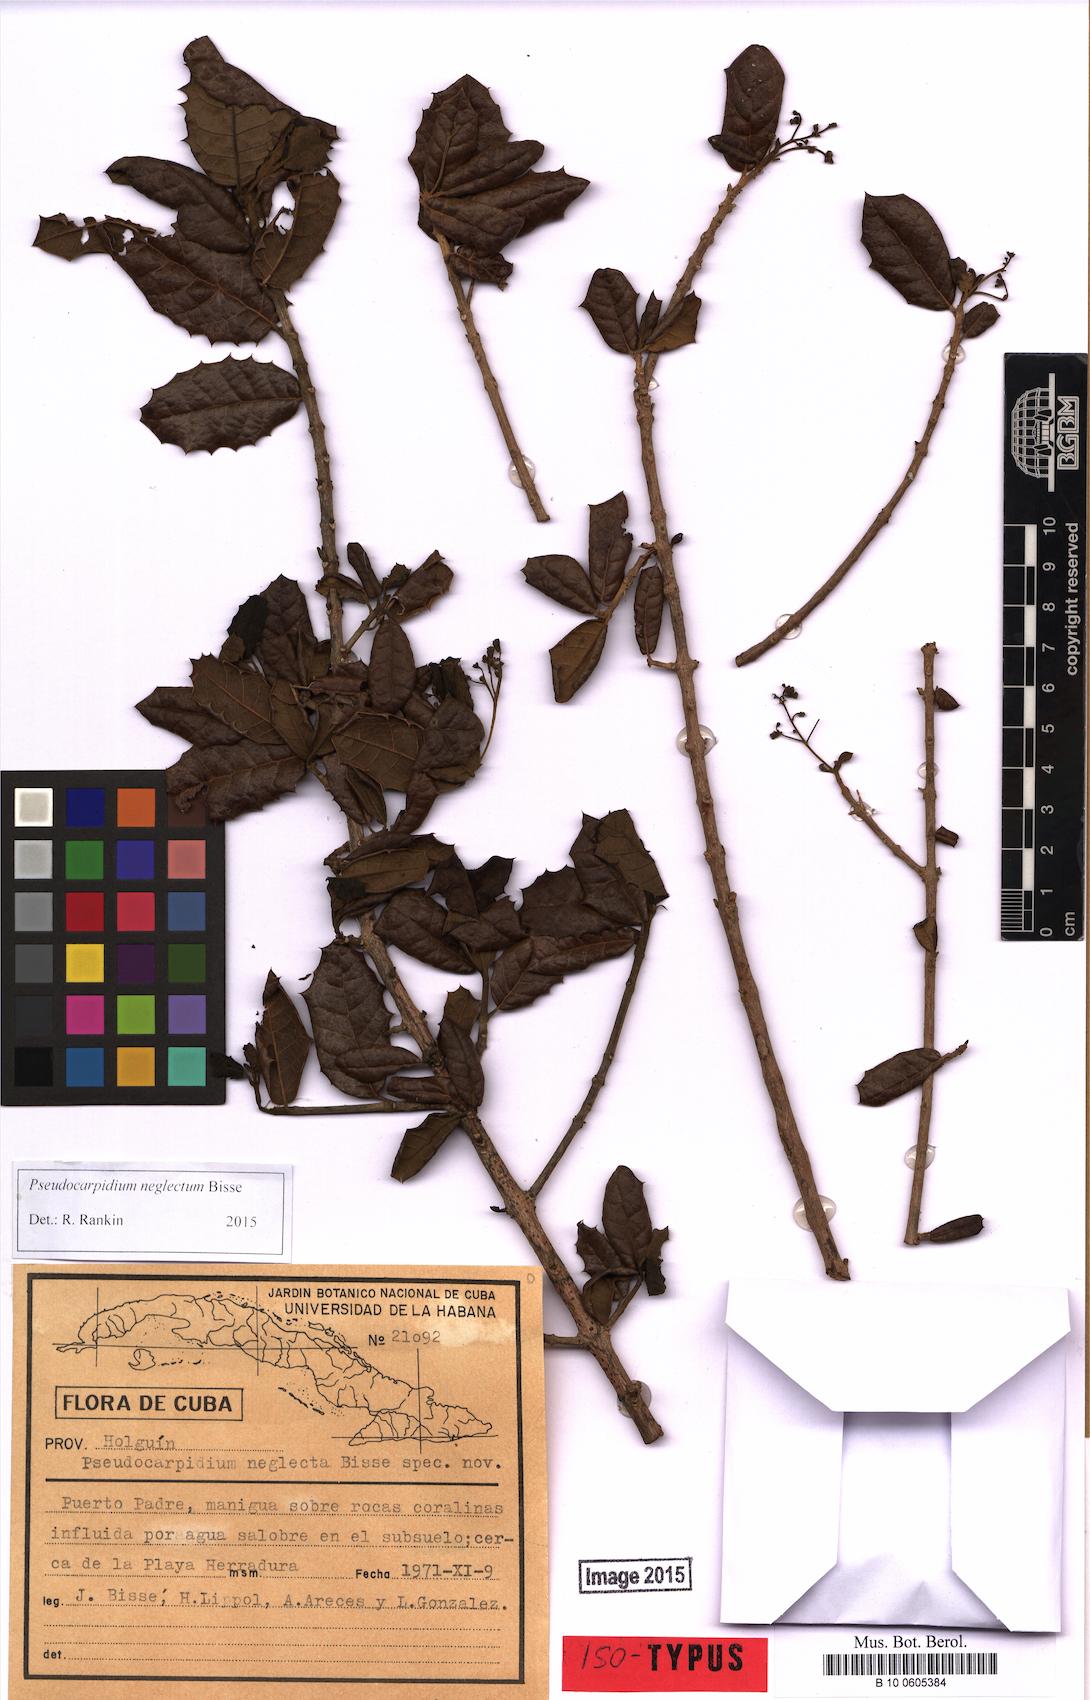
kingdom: Plantae
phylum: Tracheophyta
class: Magnoliopsida
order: Lamiales
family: Lamiaceae
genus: Pseudocarpidium
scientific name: Pseudocarpidium neglecta
